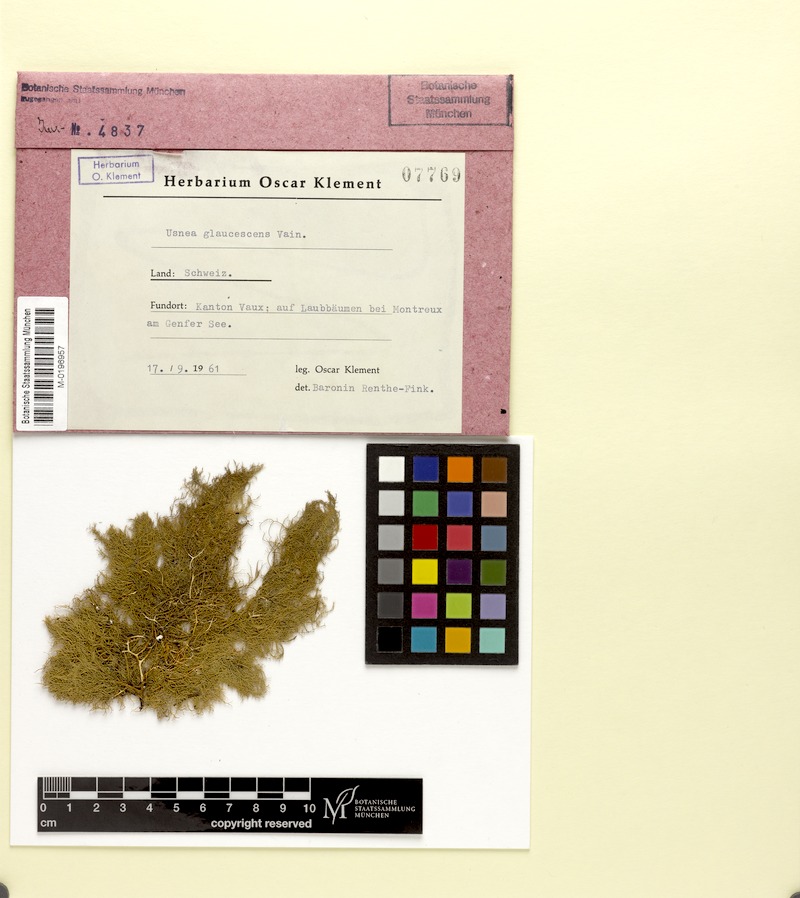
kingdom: Fungi
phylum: Ascomycota
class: Lecanoromycetes
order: Lecanorales
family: Parmeliaceae
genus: Usnea
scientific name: Usnea hirta
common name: Bristly beard lichen
